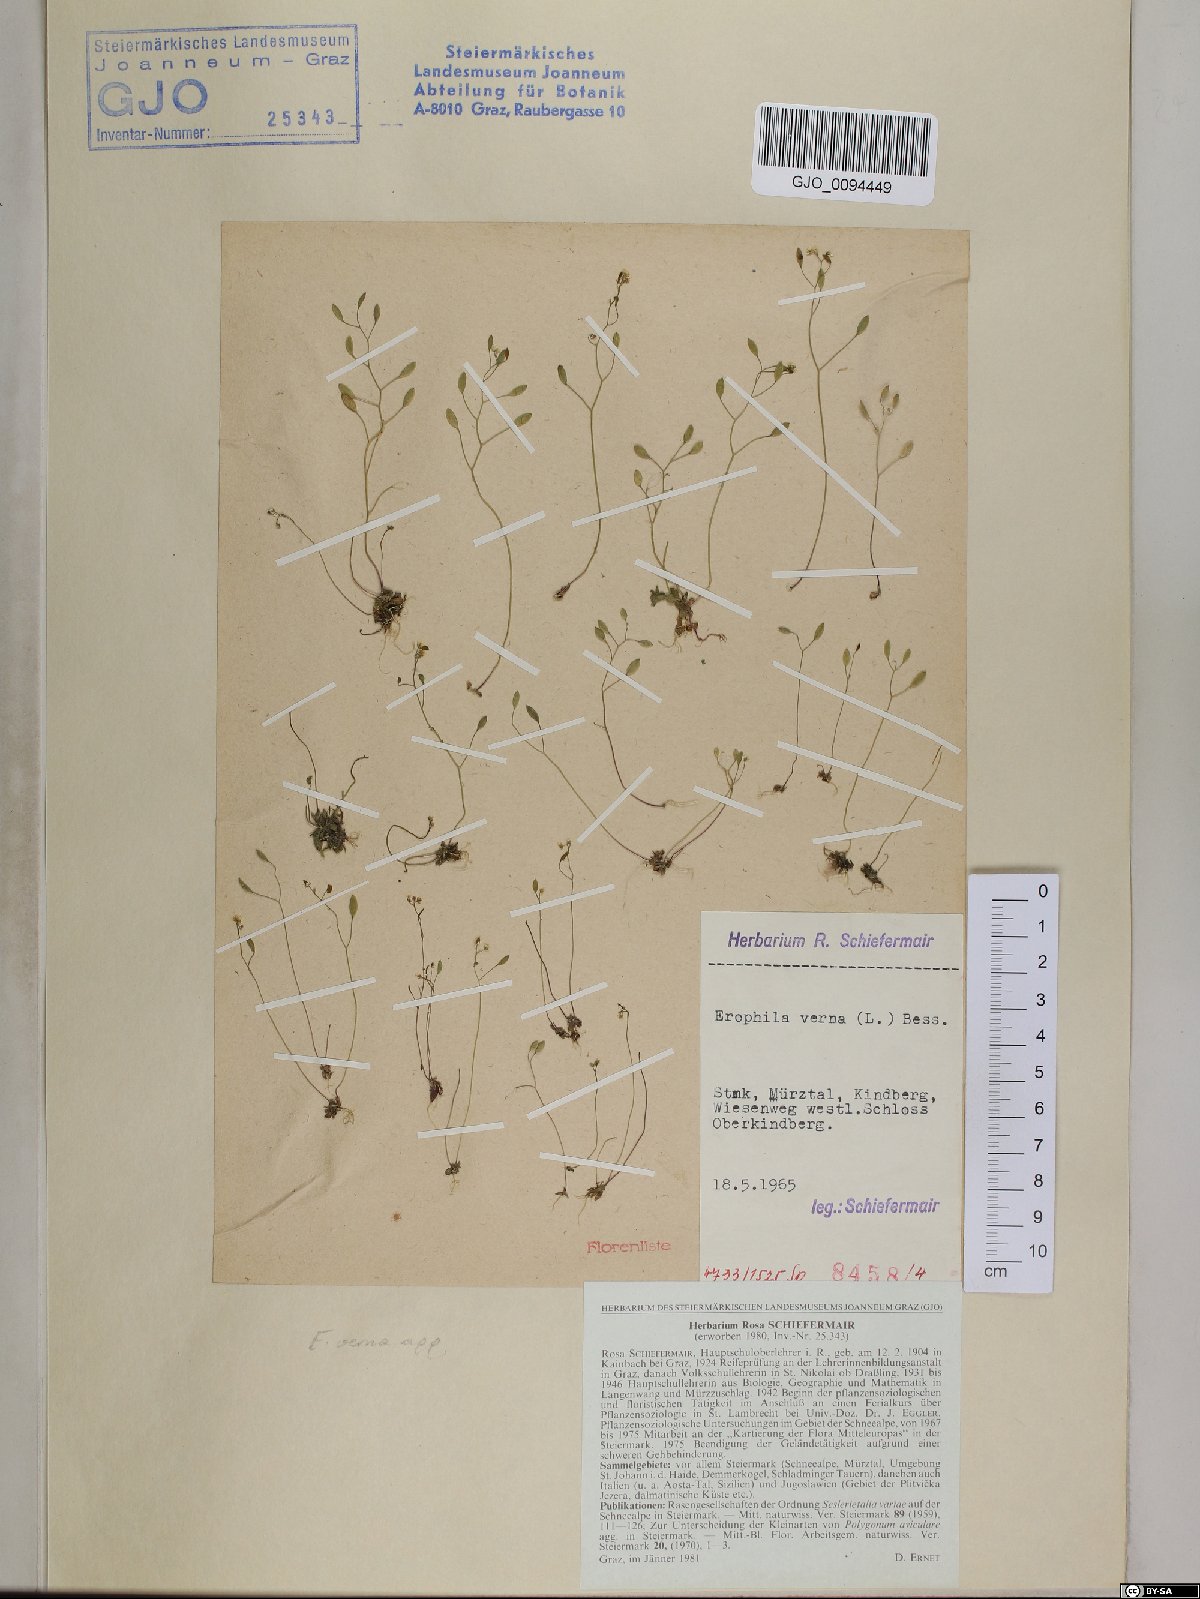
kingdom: Plantae
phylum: Tracheophyta
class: Magnoliopsida
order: Brassicales
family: Brassicaceae
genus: Draba
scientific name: Draba verna
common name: Spring draba
